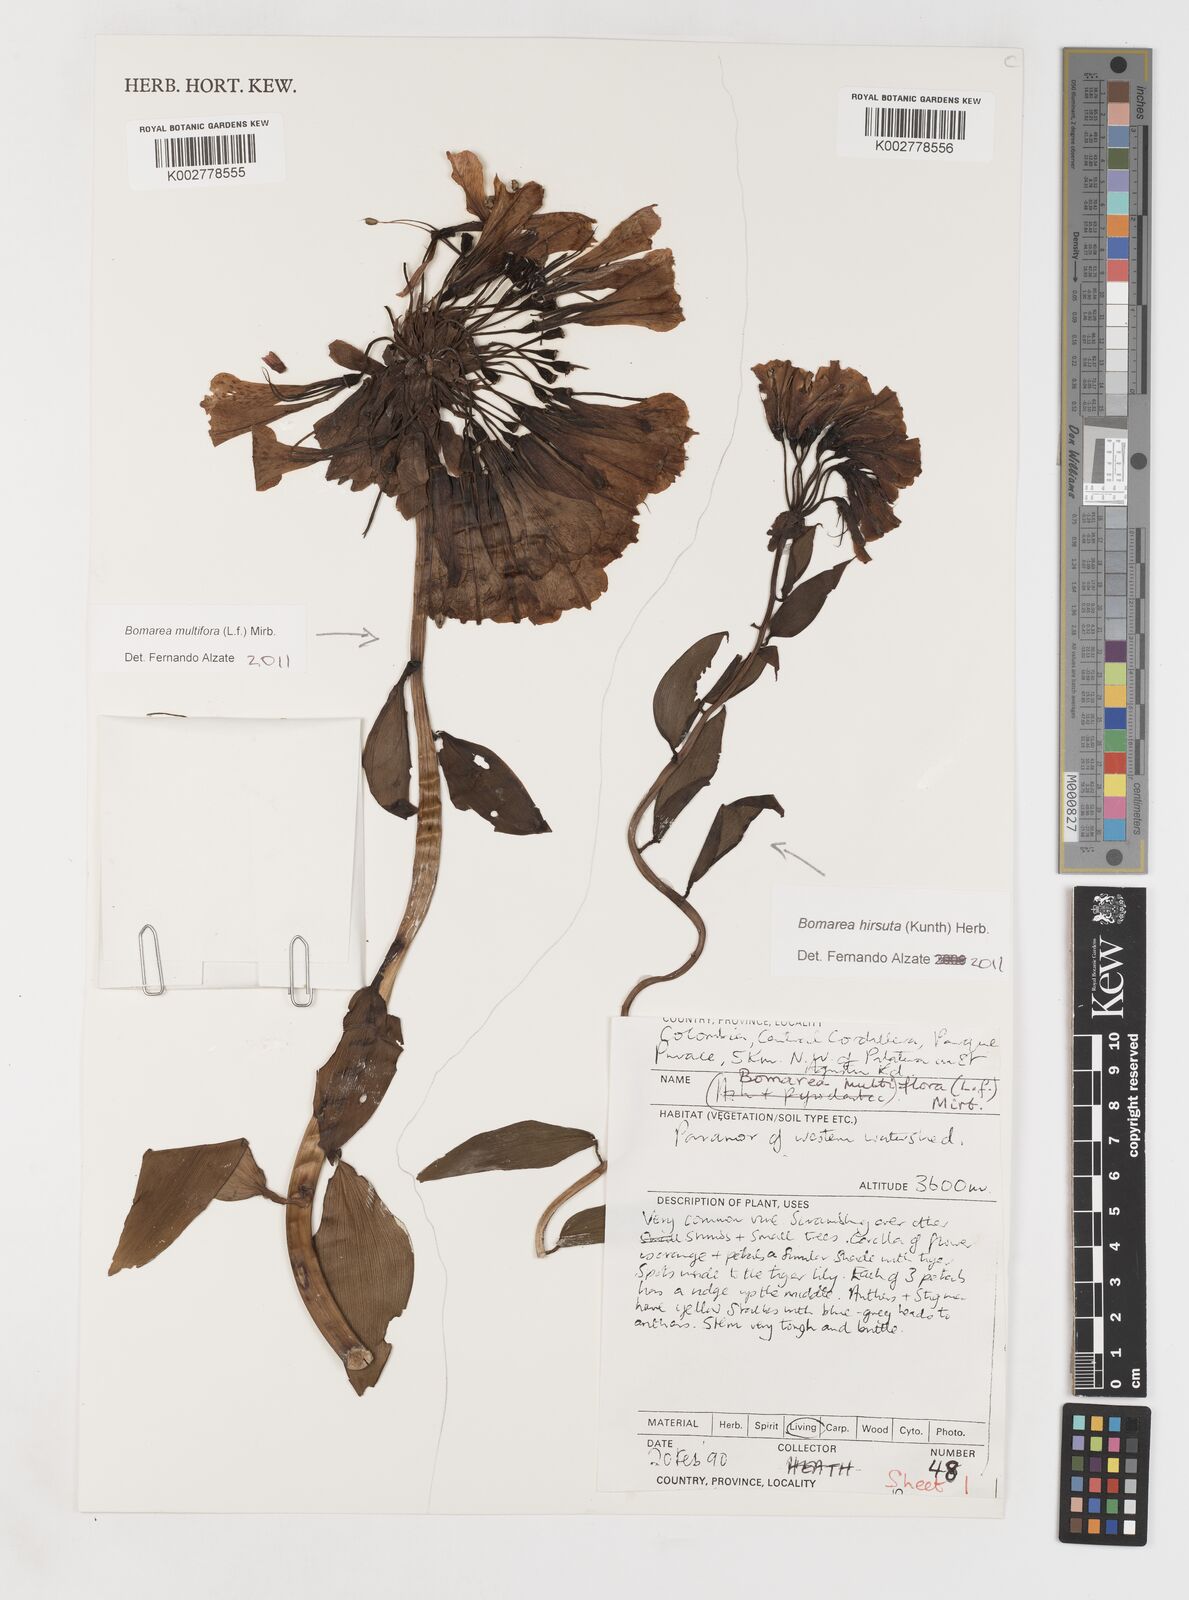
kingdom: Plantae
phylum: Tracheophyta
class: Liliopsida
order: Liliales
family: Alstroemeriaceae
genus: Bomarea
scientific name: Bomarea multiflora
